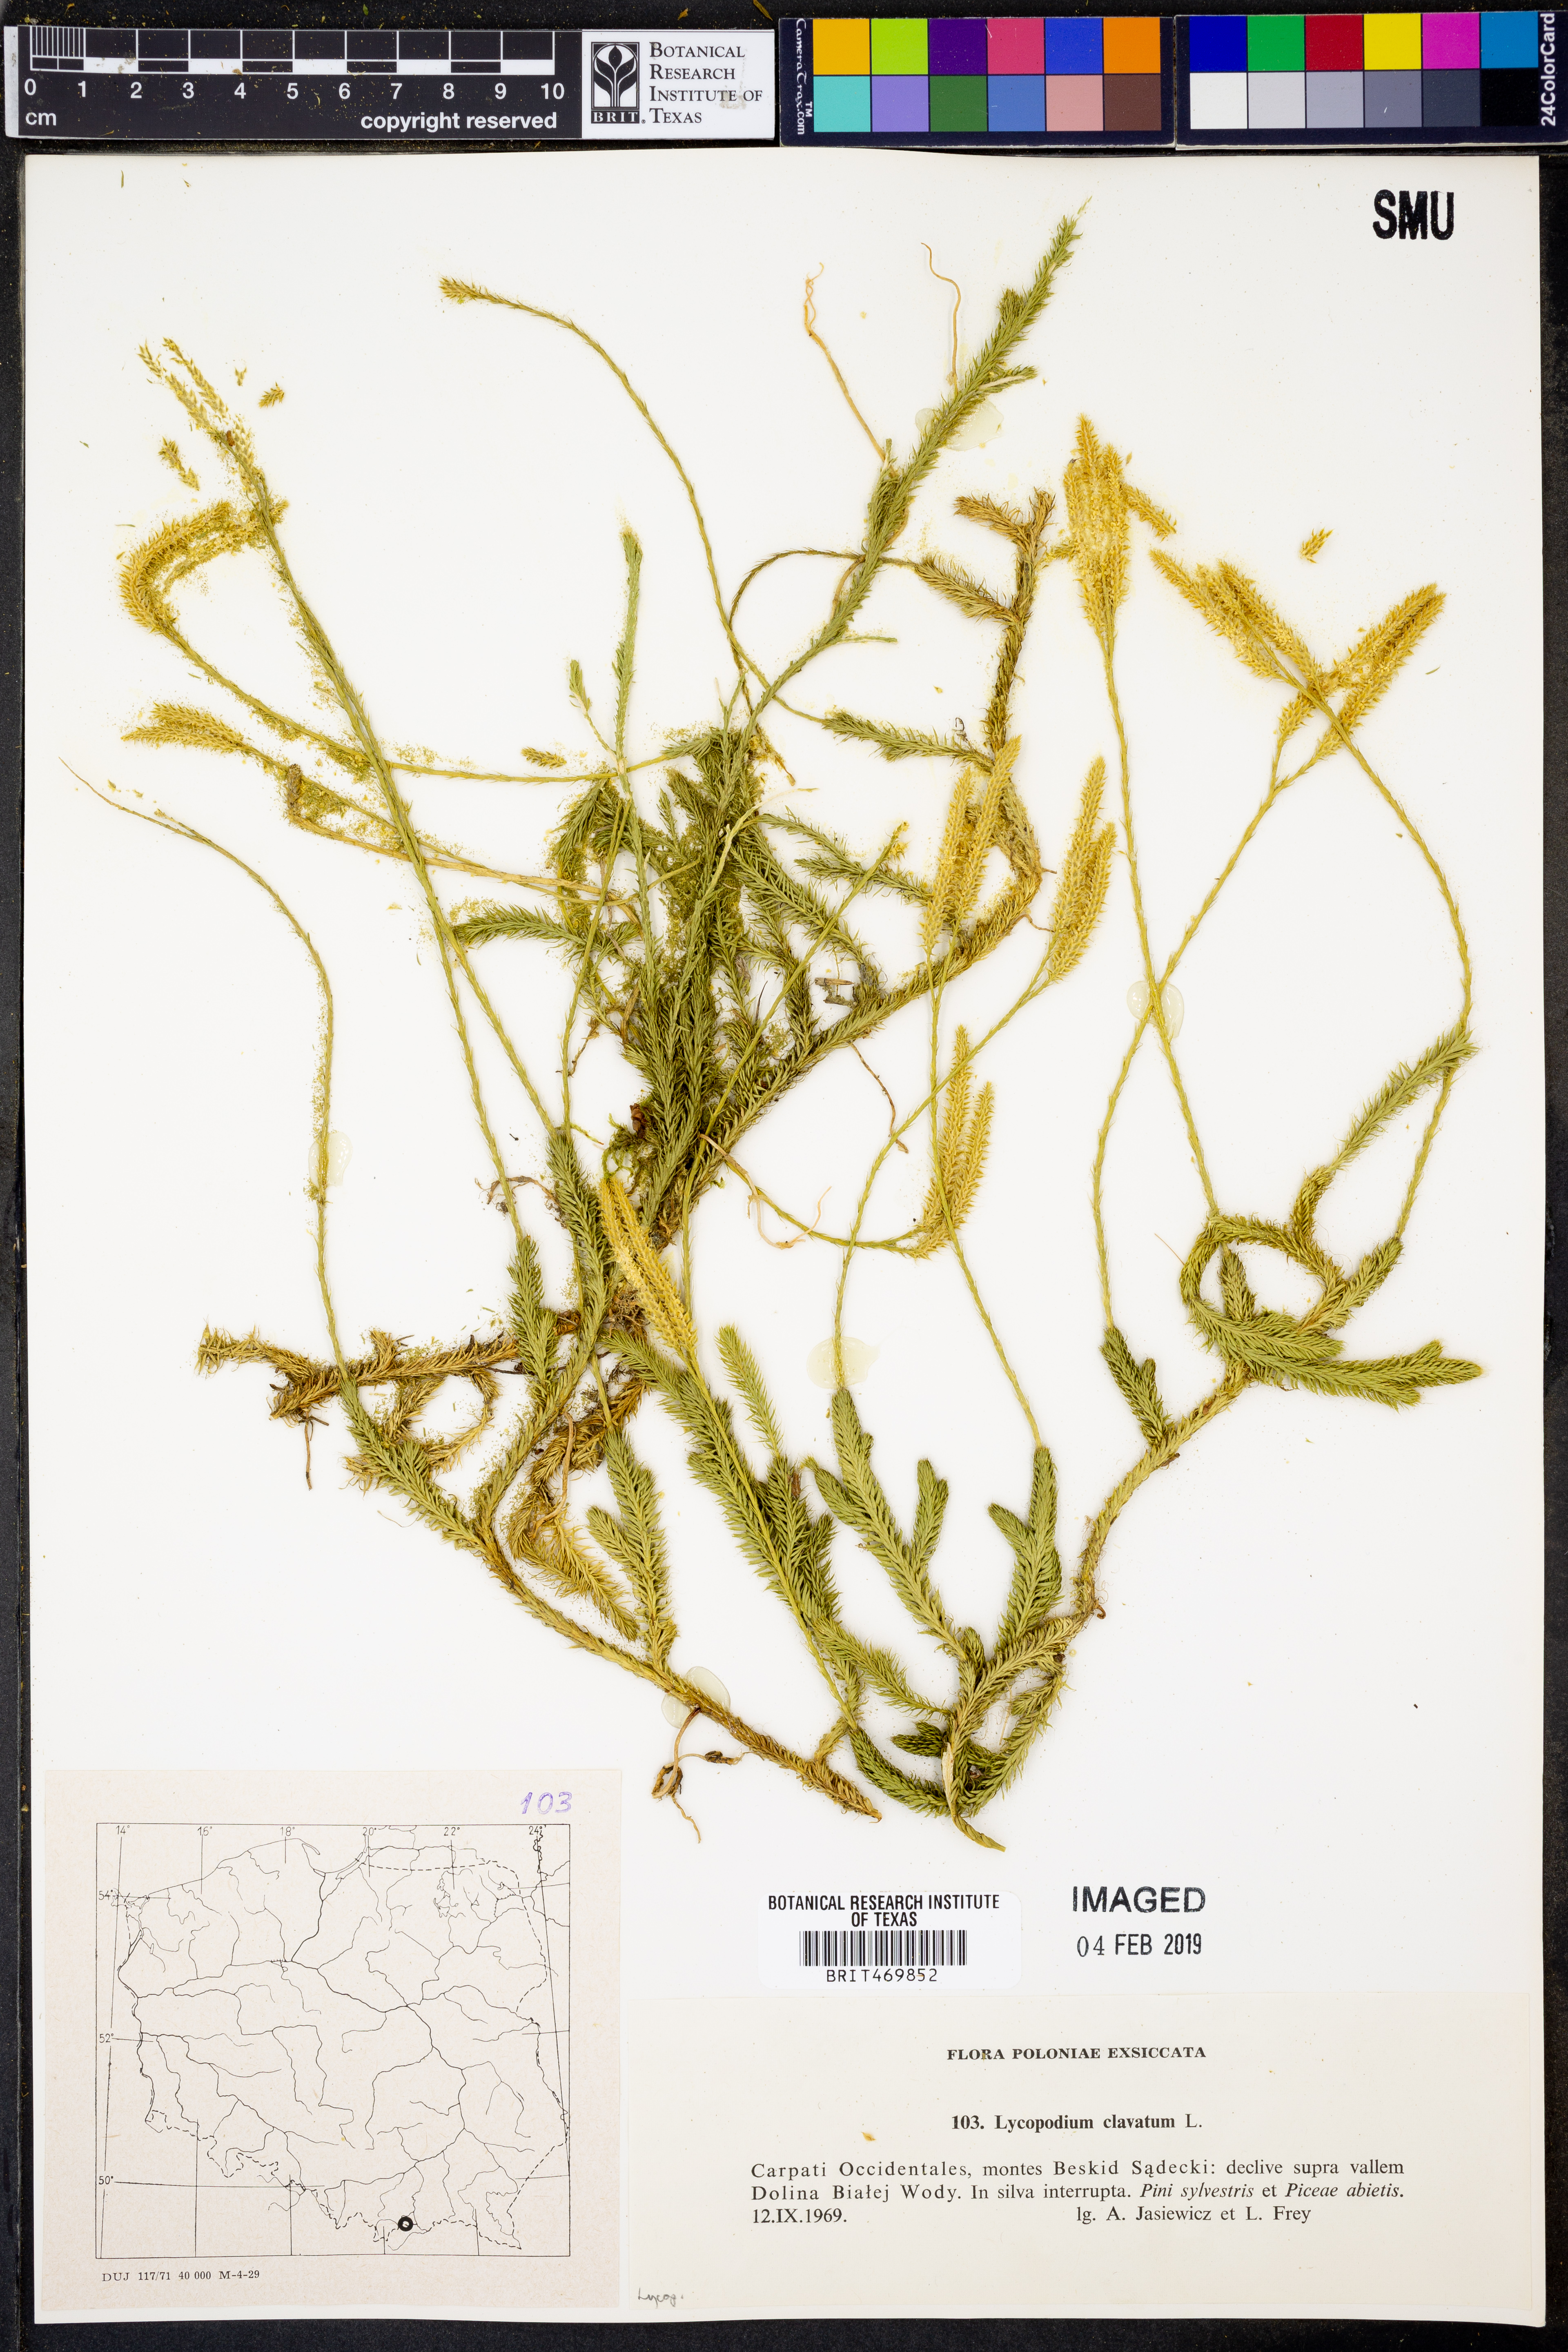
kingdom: Plantae
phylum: Tracheophyta
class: Lycopodiopsida
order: Lycopodiales
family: Lycopodiaceae
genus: Lycopodium
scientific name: Lycopodium clavatum
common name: Stag's-horn clubmoss
